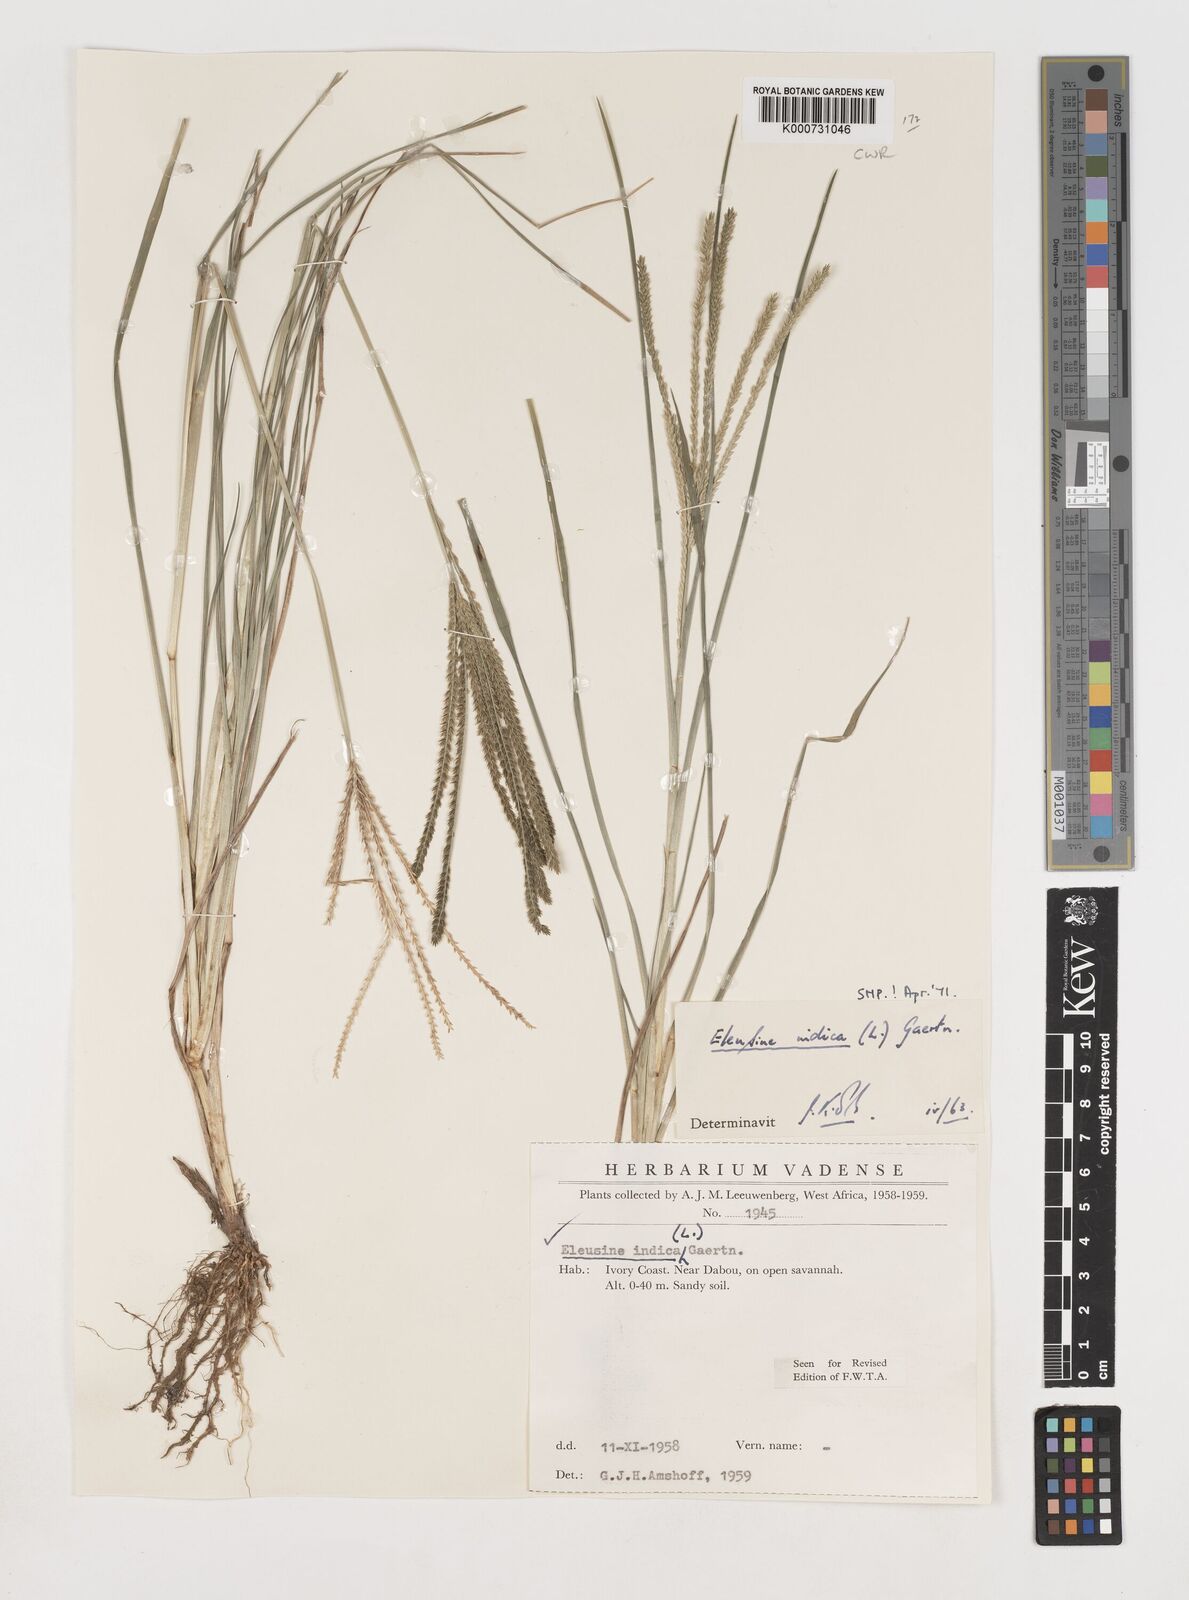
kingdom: Plantae
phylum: Tracheophyta
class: Liliopsida
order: Poales
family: Poaceae
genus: Eleusine
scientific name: Eleusine indica
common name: Yard-grass
